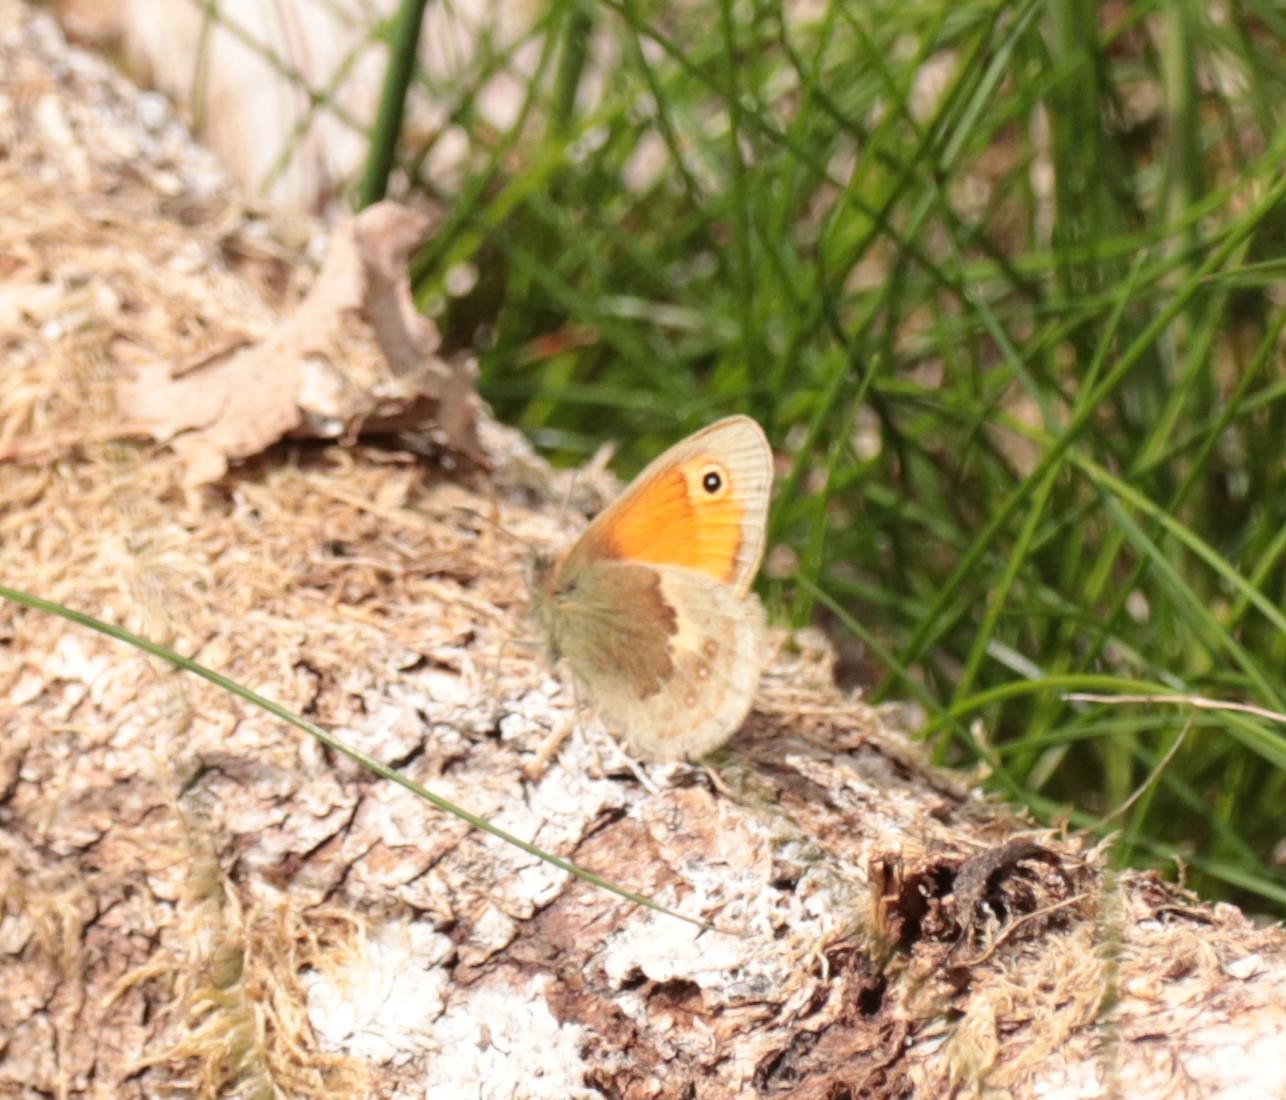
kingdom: Animalia
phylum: Arthropoda
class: Insecta
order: Lepidoptera
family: Nymphalidae
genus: Coenonympha
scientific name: Coenonympha pamphilus
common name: Okkergul randøje
